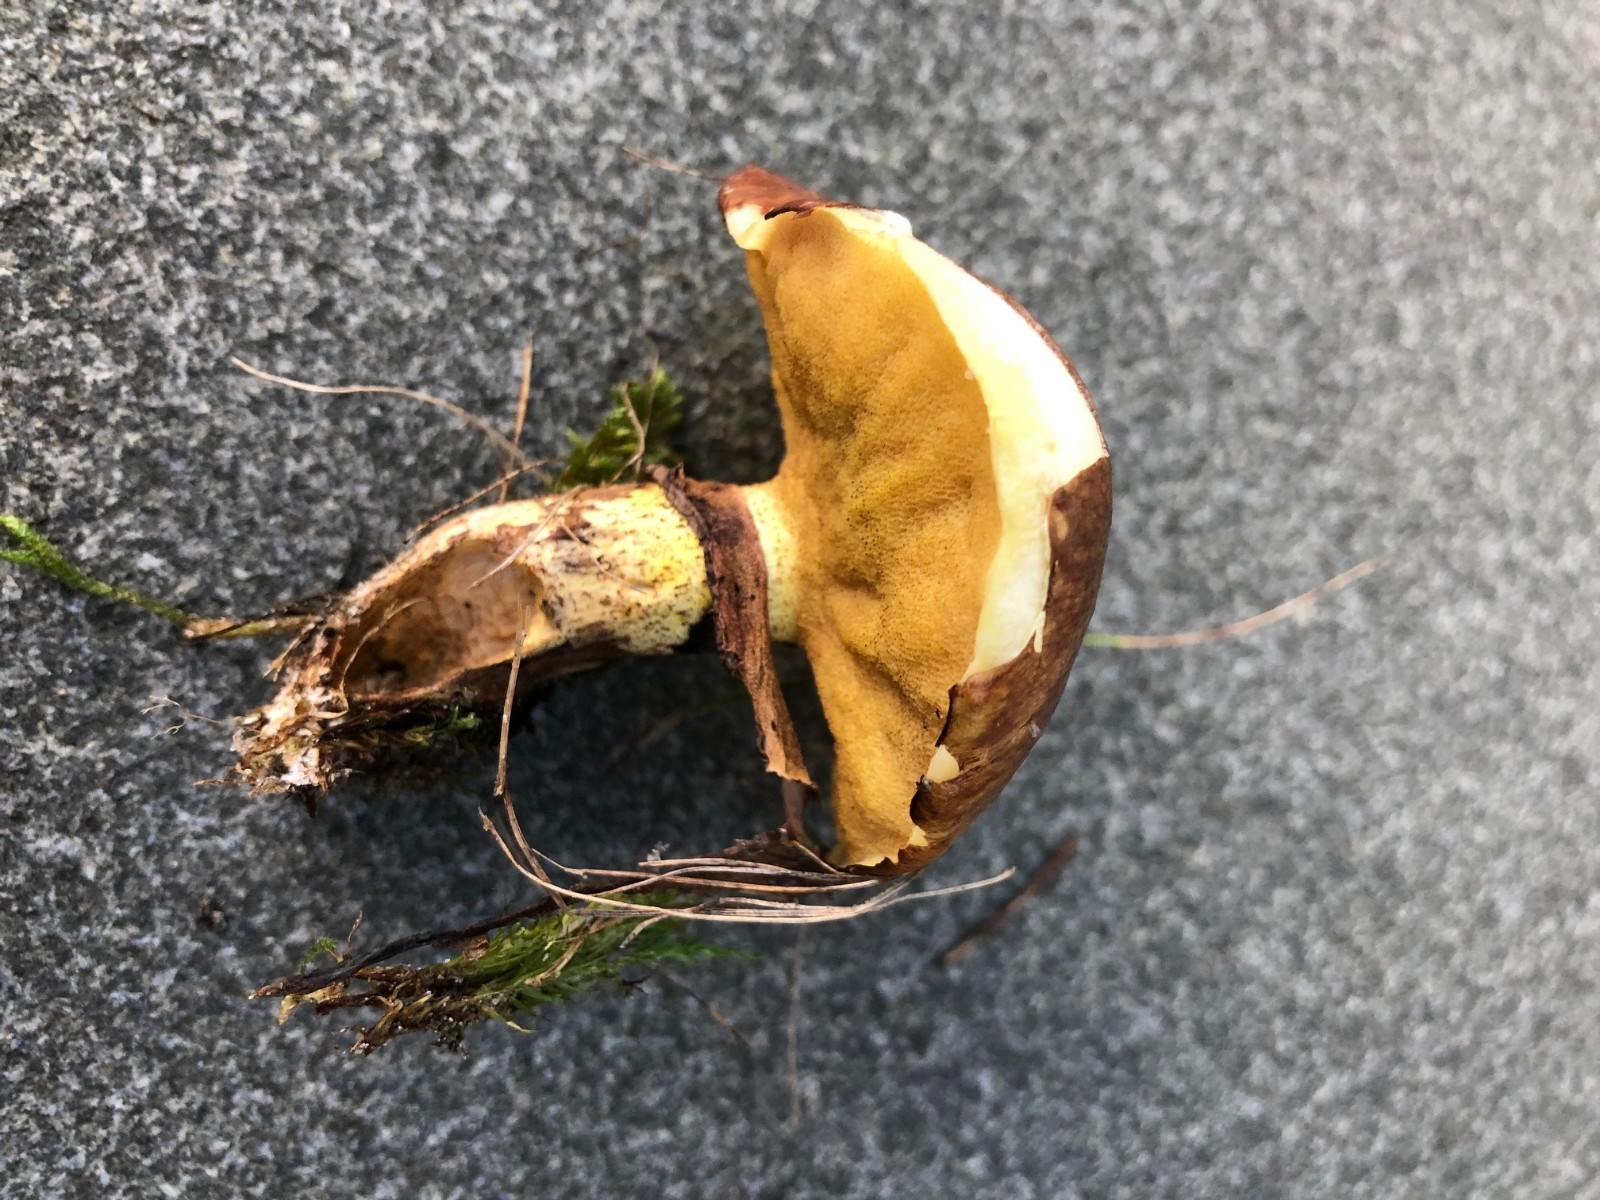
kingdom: Fungi
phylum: Basidiomycota
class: Agaricomycetes
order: Boletales
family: Suillaceae
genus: Suillus
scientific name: Suillus luteus
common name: brungul slimrørhat
